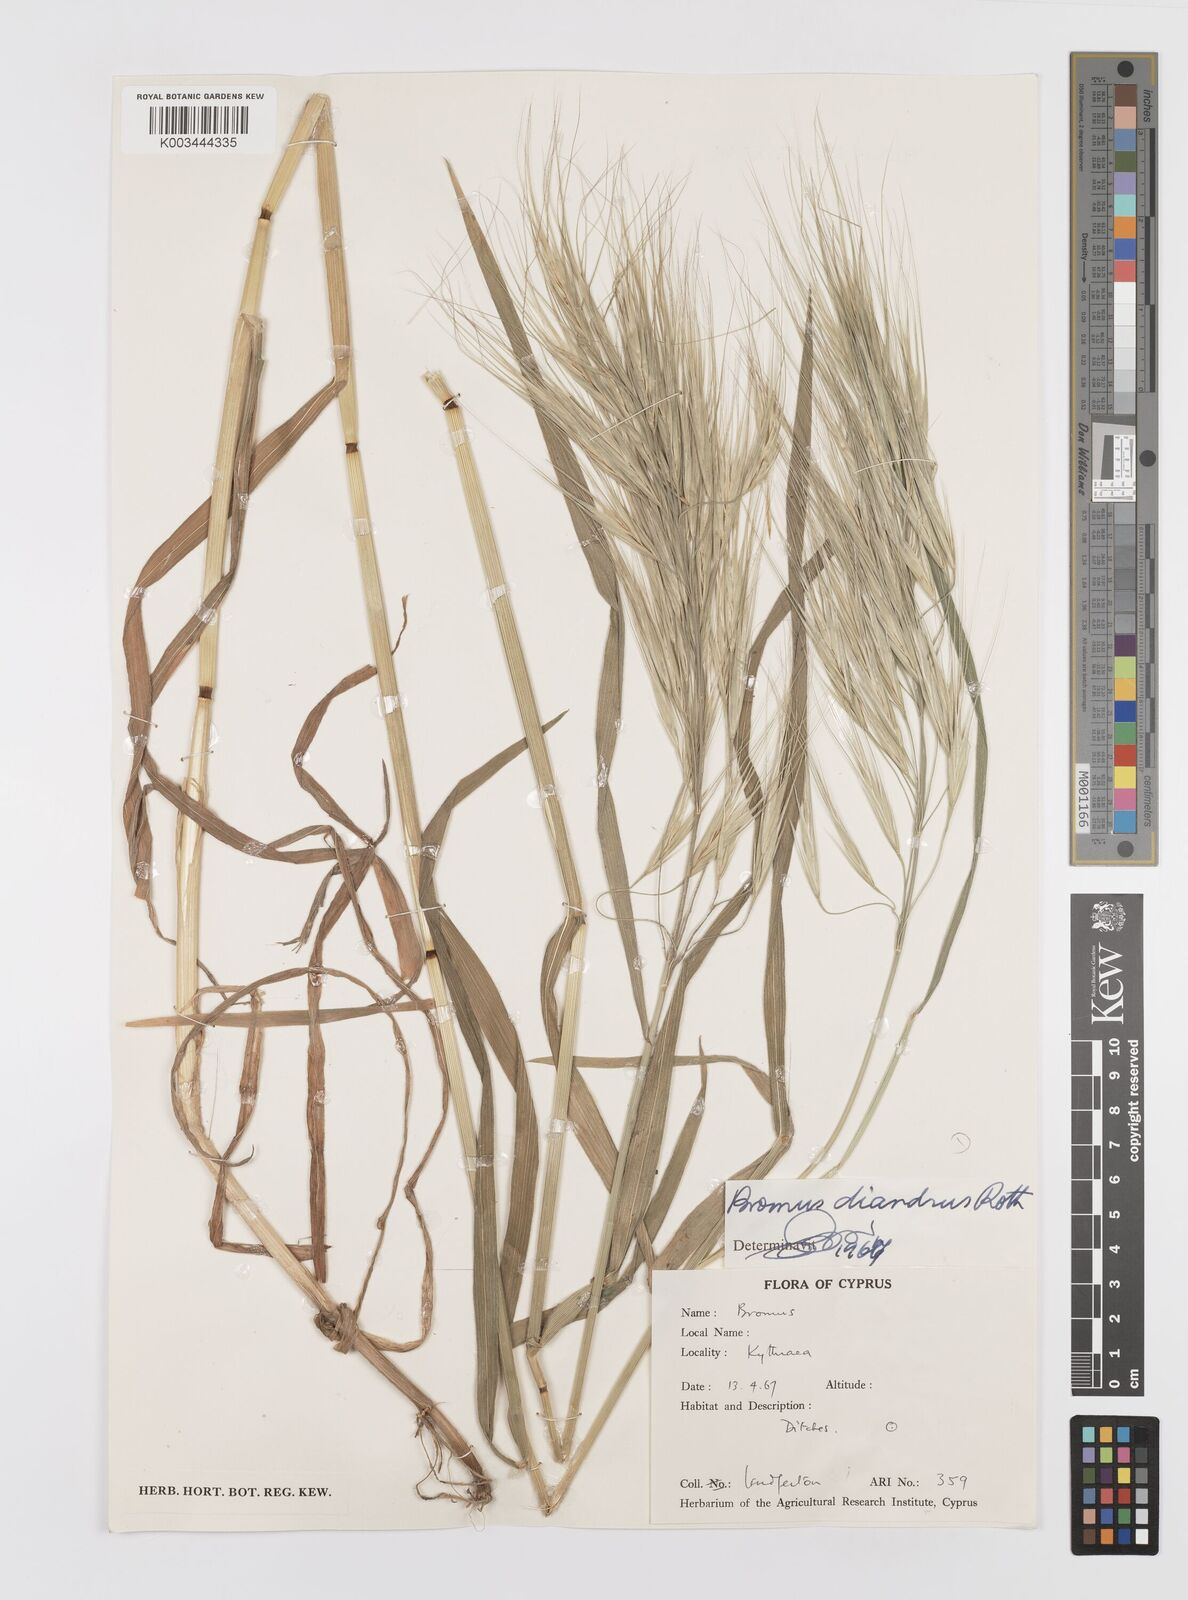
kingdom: Plantae
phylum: Tracheophyta
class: Liliopsida
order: Poales
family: Poaceae
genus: Bromus
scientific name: Bromus diandrus
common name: Ripgut brome
